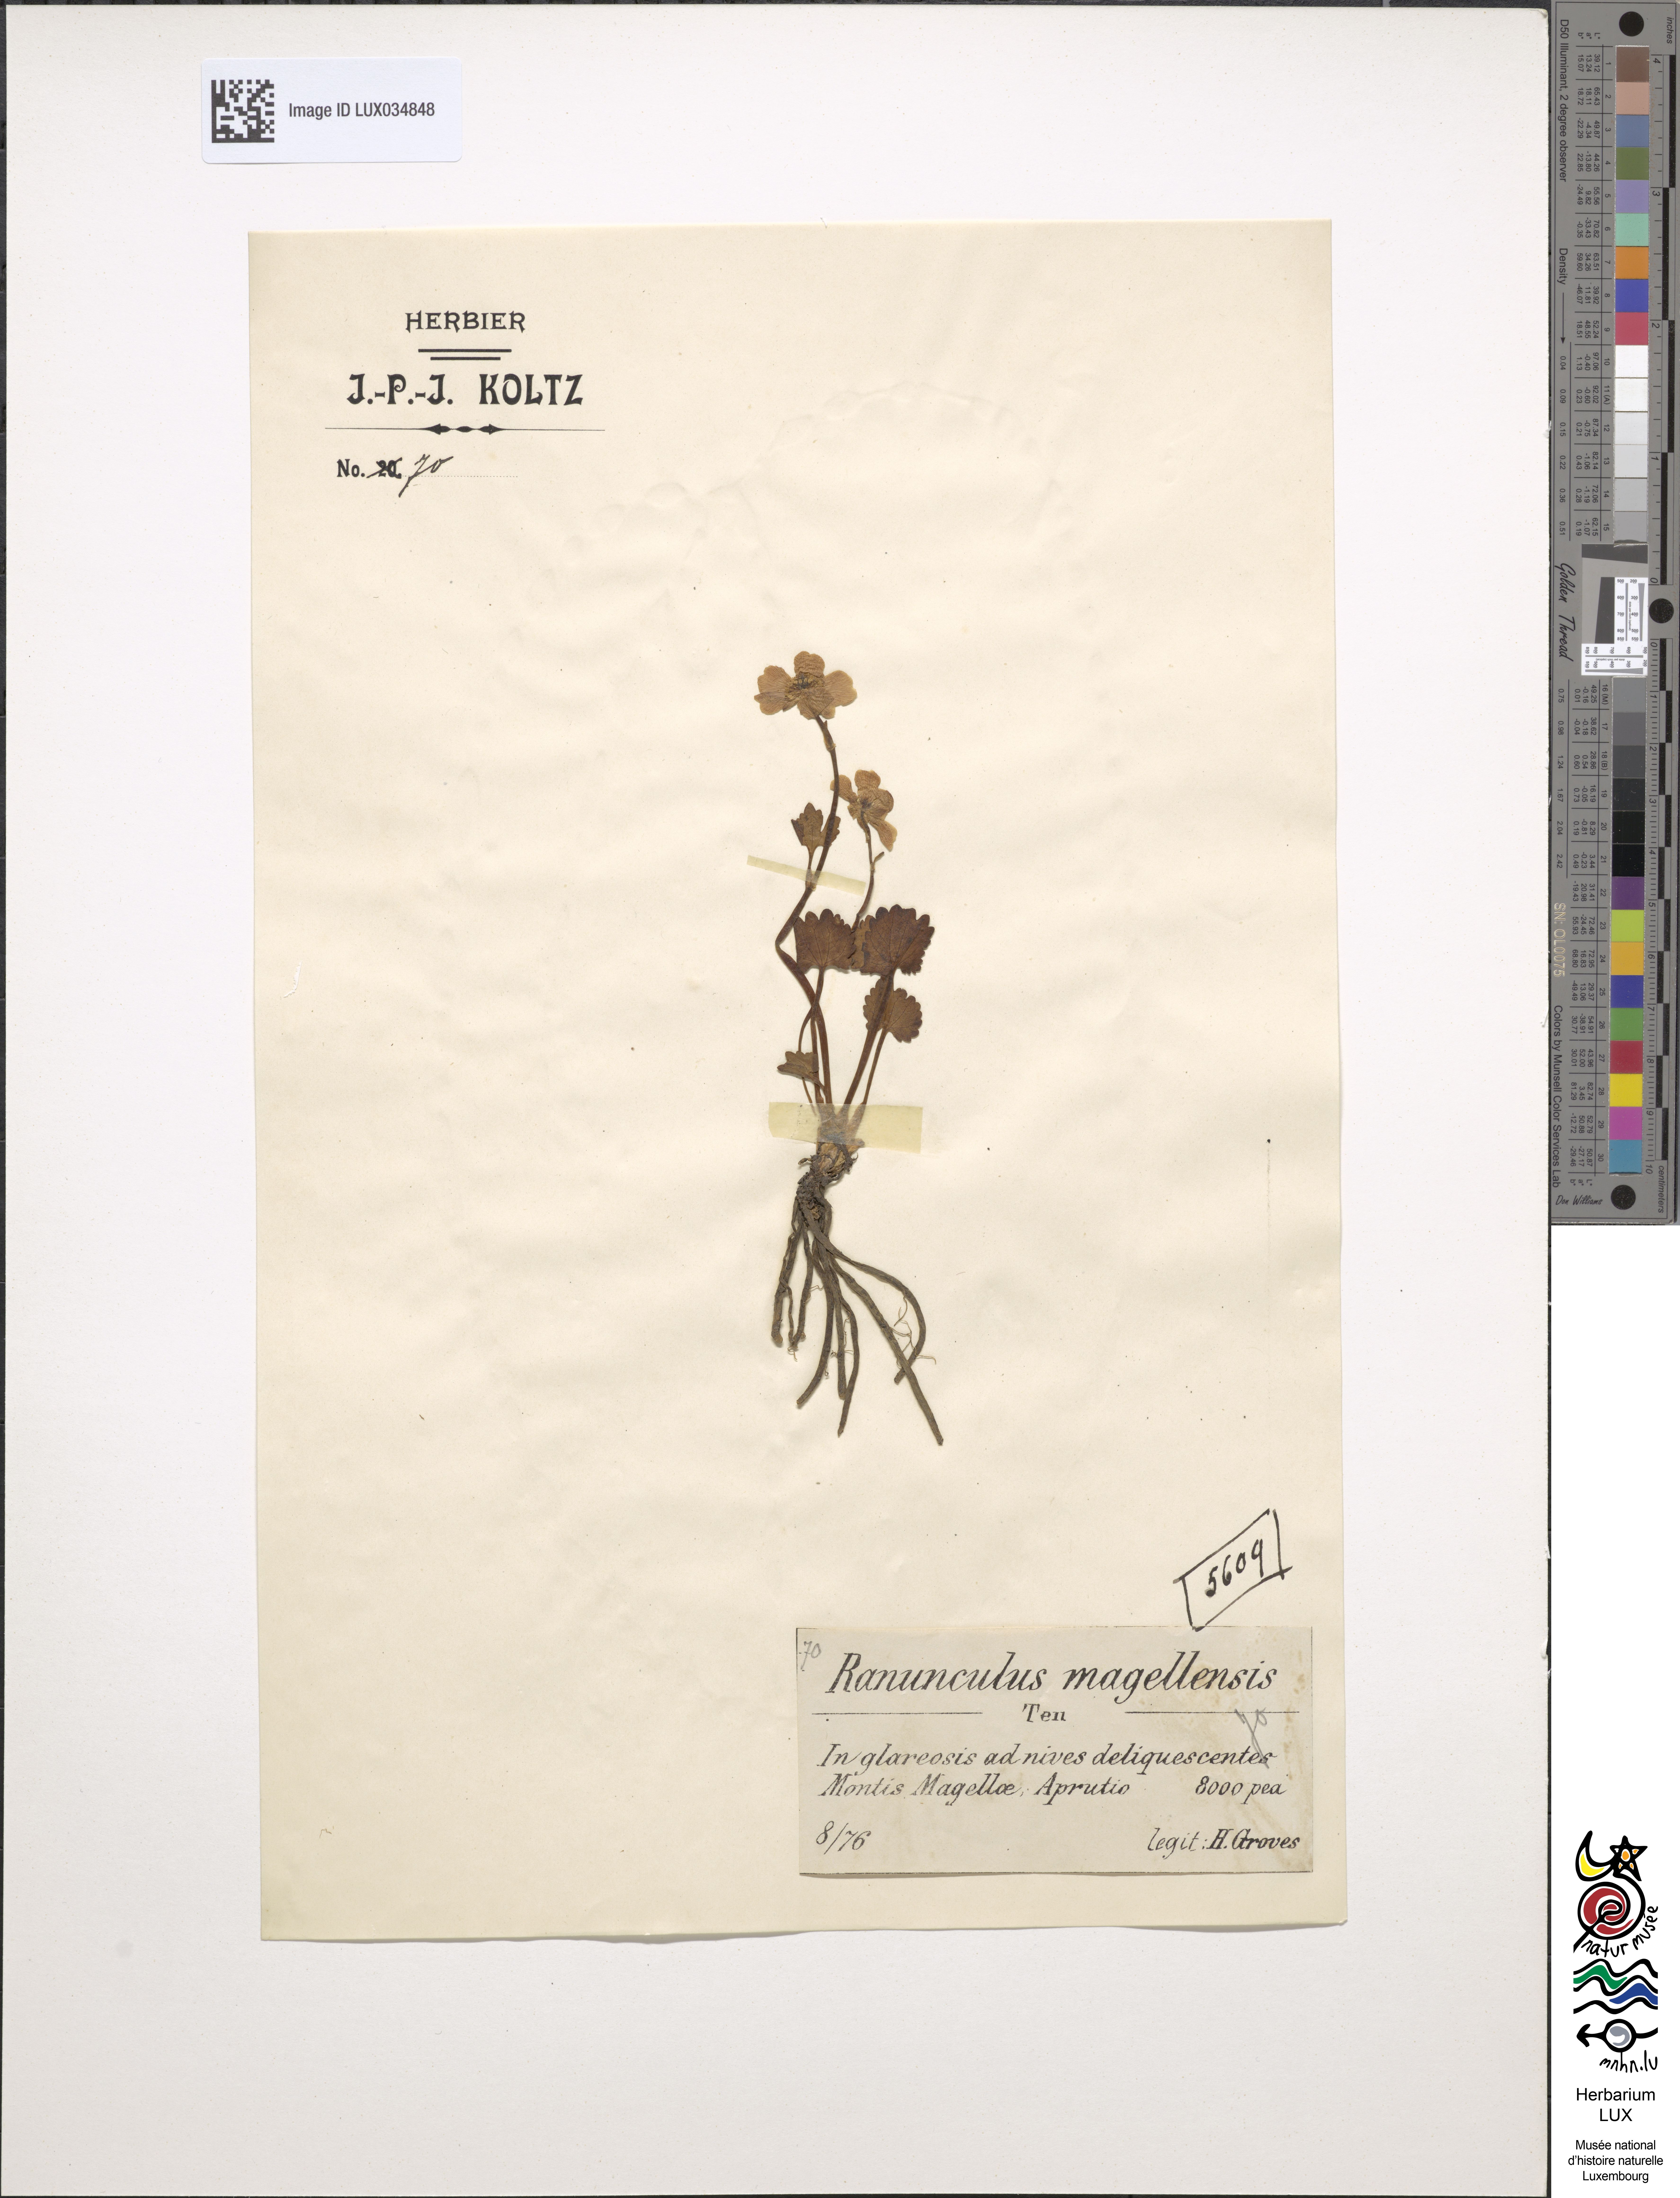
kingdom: Plantae
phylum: Tracheophyta
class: Magnoliopsida
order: Ranunculales
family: Ranunculaceae
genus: Ranunculus
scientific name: Ranunculus crenatus
